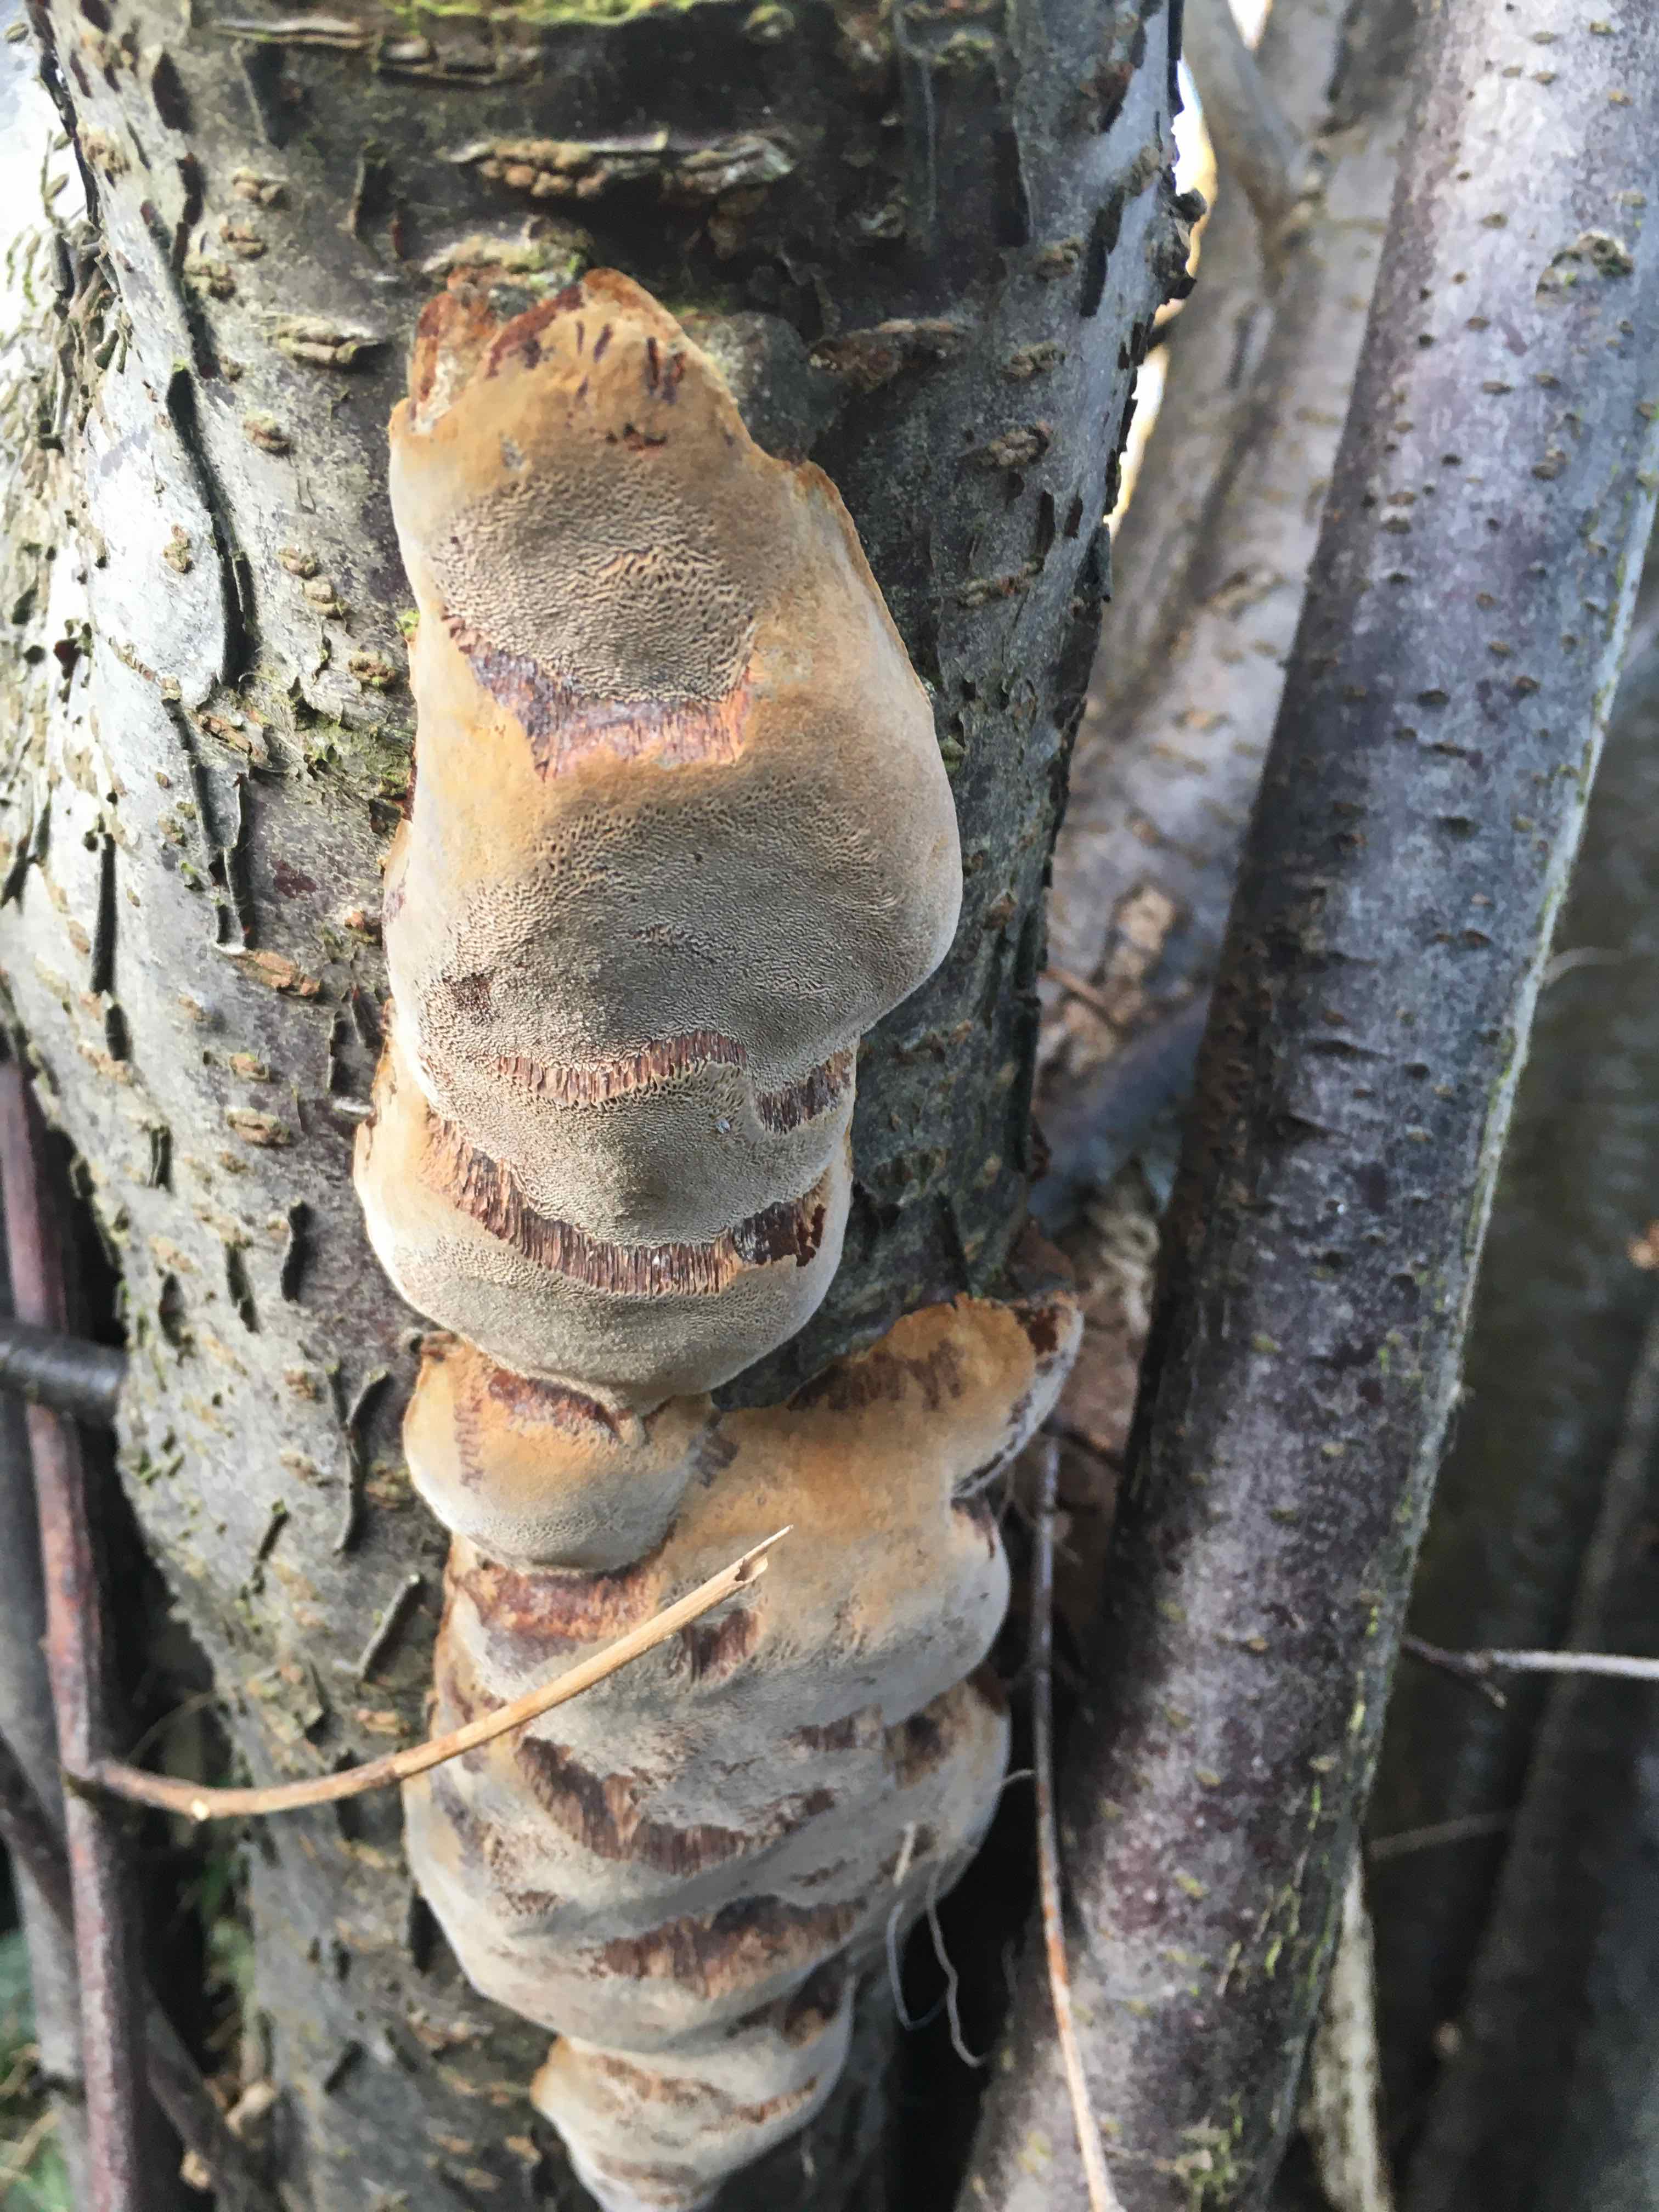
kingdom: Fungi
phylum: Basidiomycota
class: Agaricomycetes
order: Hymenochaetales
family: Hymenochaetaceae
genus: Phellinus
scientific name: Phellinus pomaceus
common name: blomme-ildporesvamp
